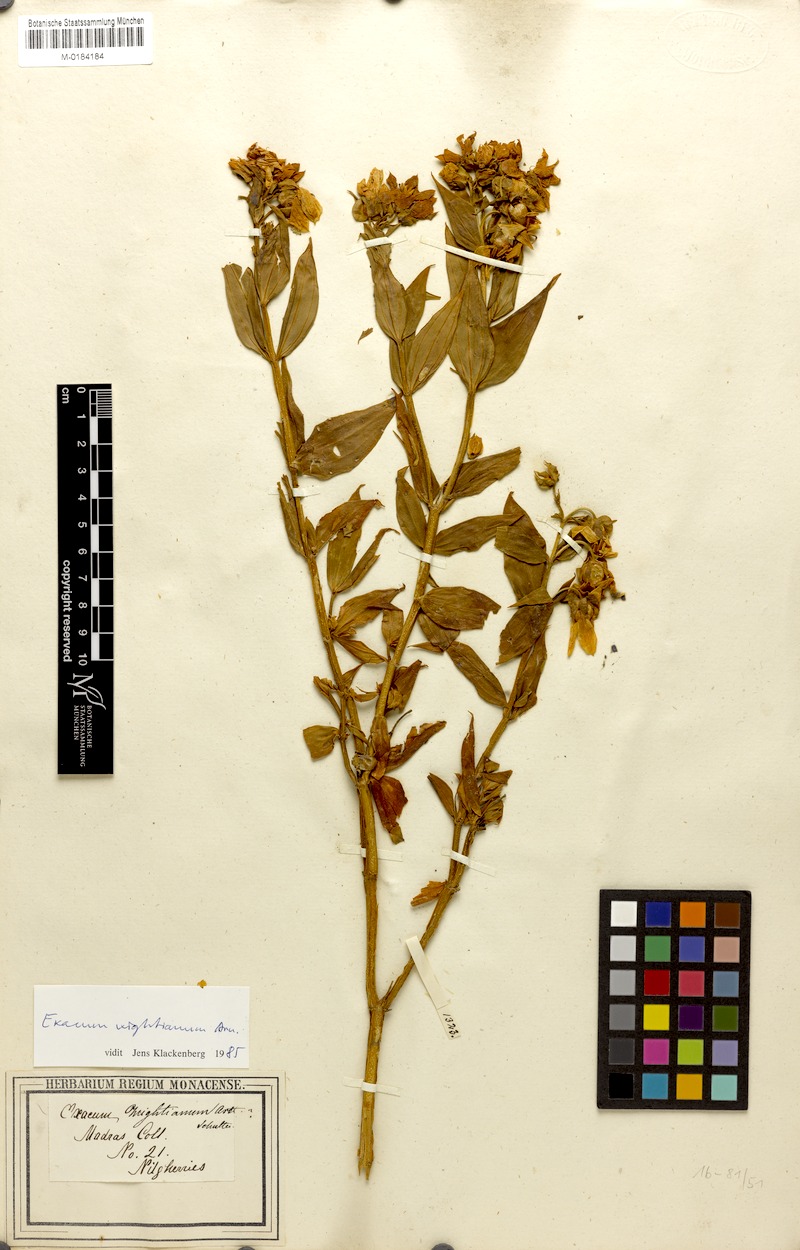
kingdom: Plantae
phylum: Tracheophyta
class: Magnoliopsida
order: Gentianales
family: Gentianaceae
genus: Exacum
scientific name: Exacum wightianum
